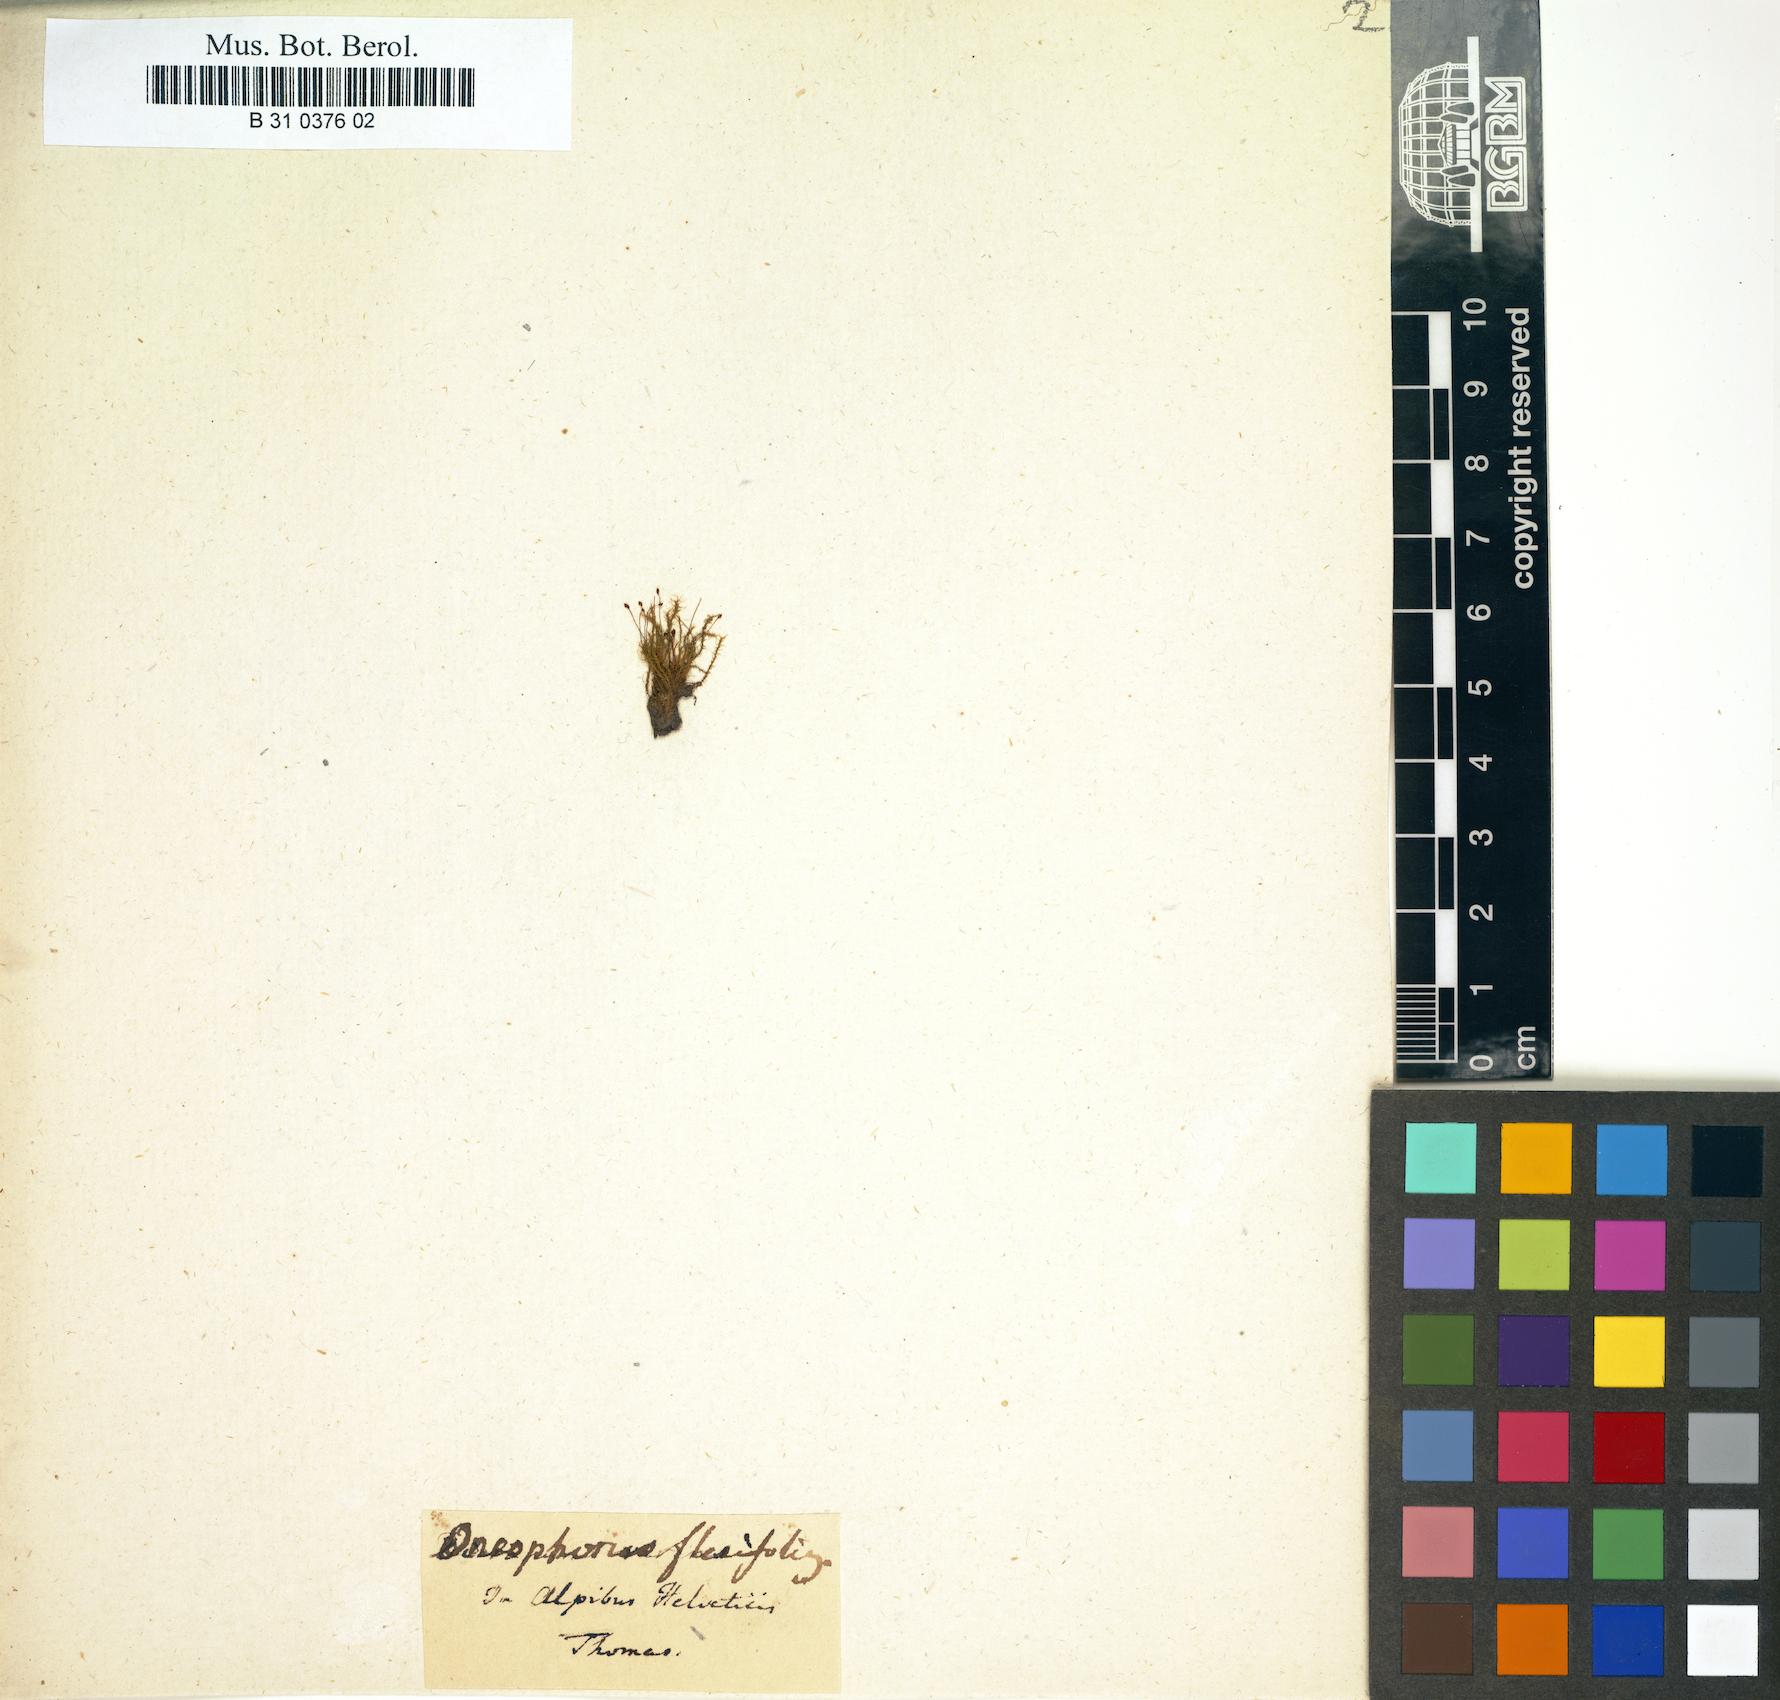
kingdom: Plantae
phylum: Bryophyta
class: Bryopsida
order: Dicranales
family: Dicranaceae
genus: Dicranum
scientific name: Dicranum undulatum
